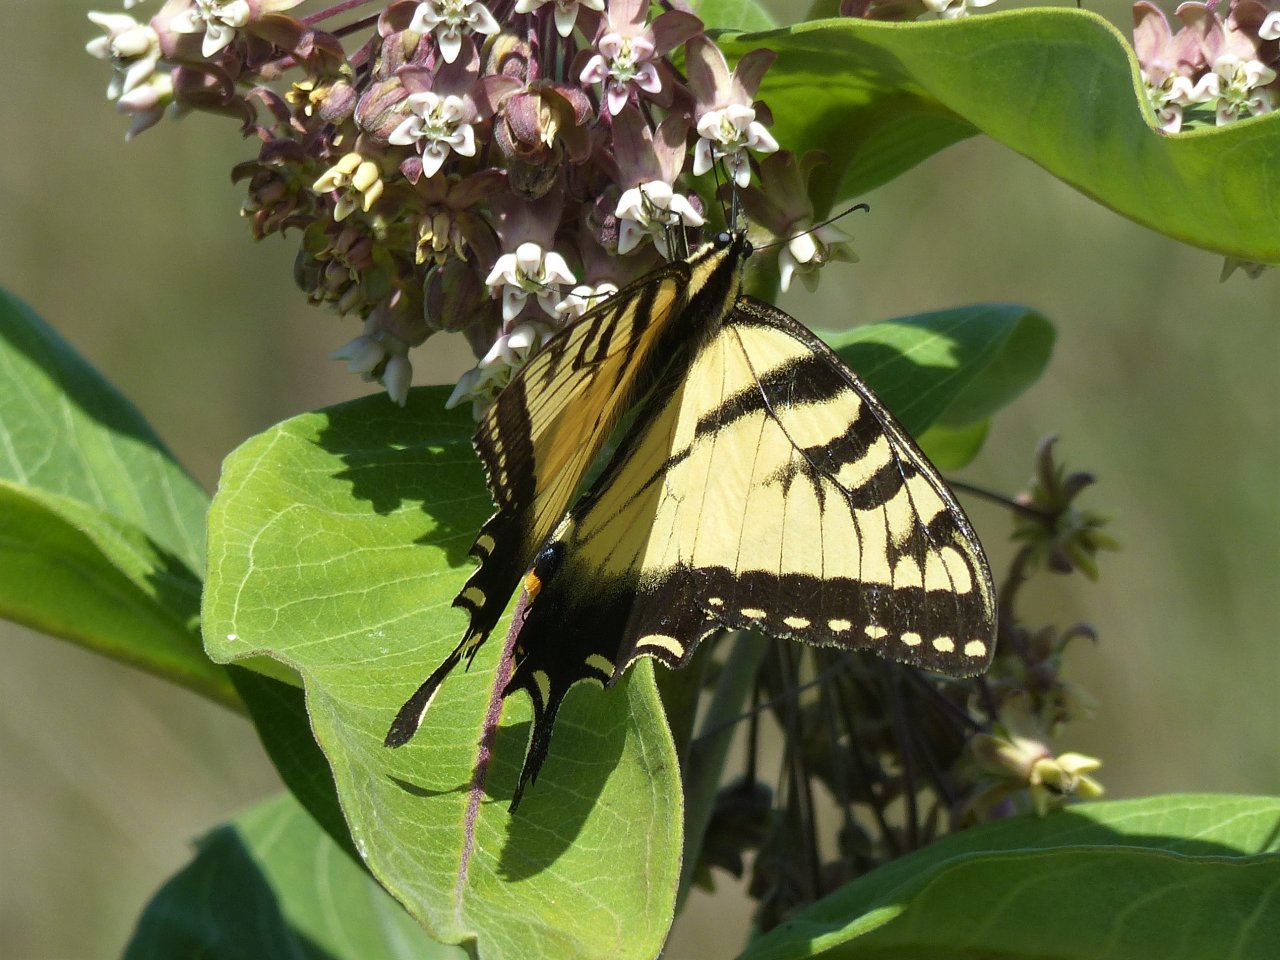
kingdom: Animalia
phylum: Arthropoda
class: Insecta
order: Lepidoptera
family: Papilionidae
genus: Pterourus
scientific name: Pterourus glaucus
